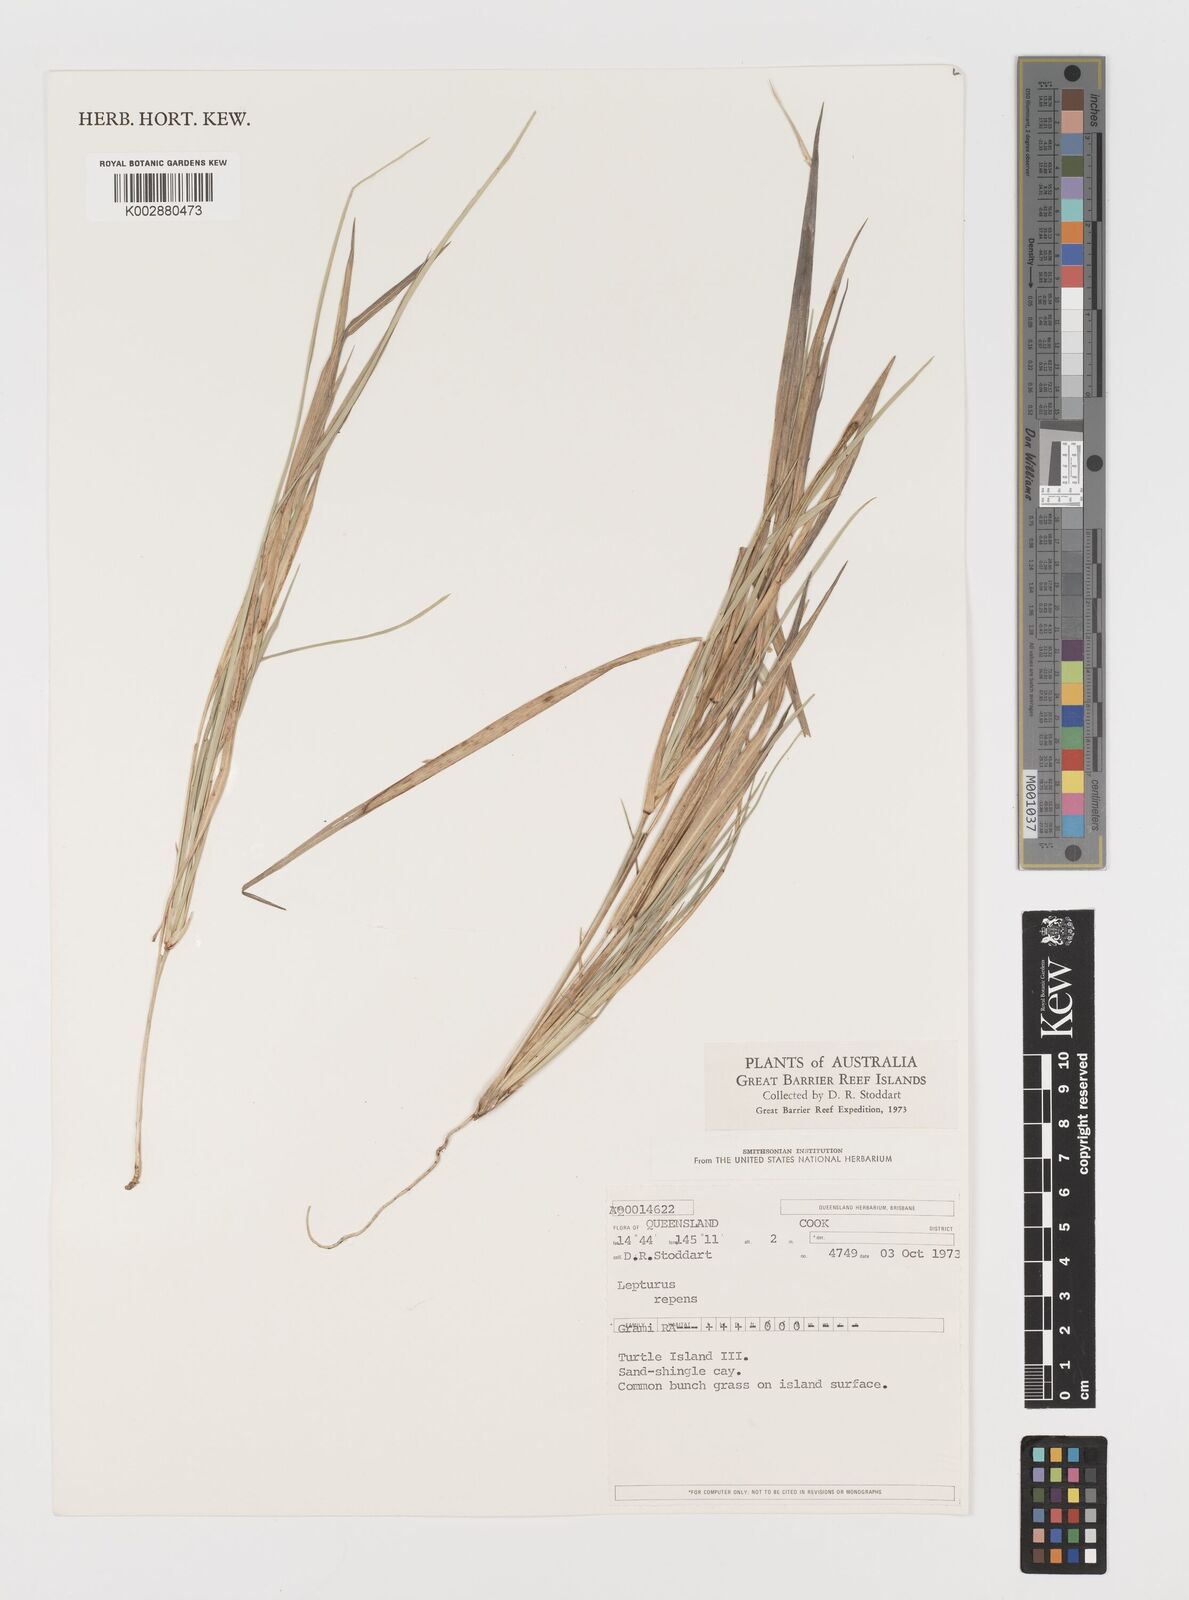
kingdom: Plantae
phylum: Tracheophyta
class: Liliopsida
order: Poales
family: Poaceae
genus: Lepturus
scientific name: Lepturus repens
